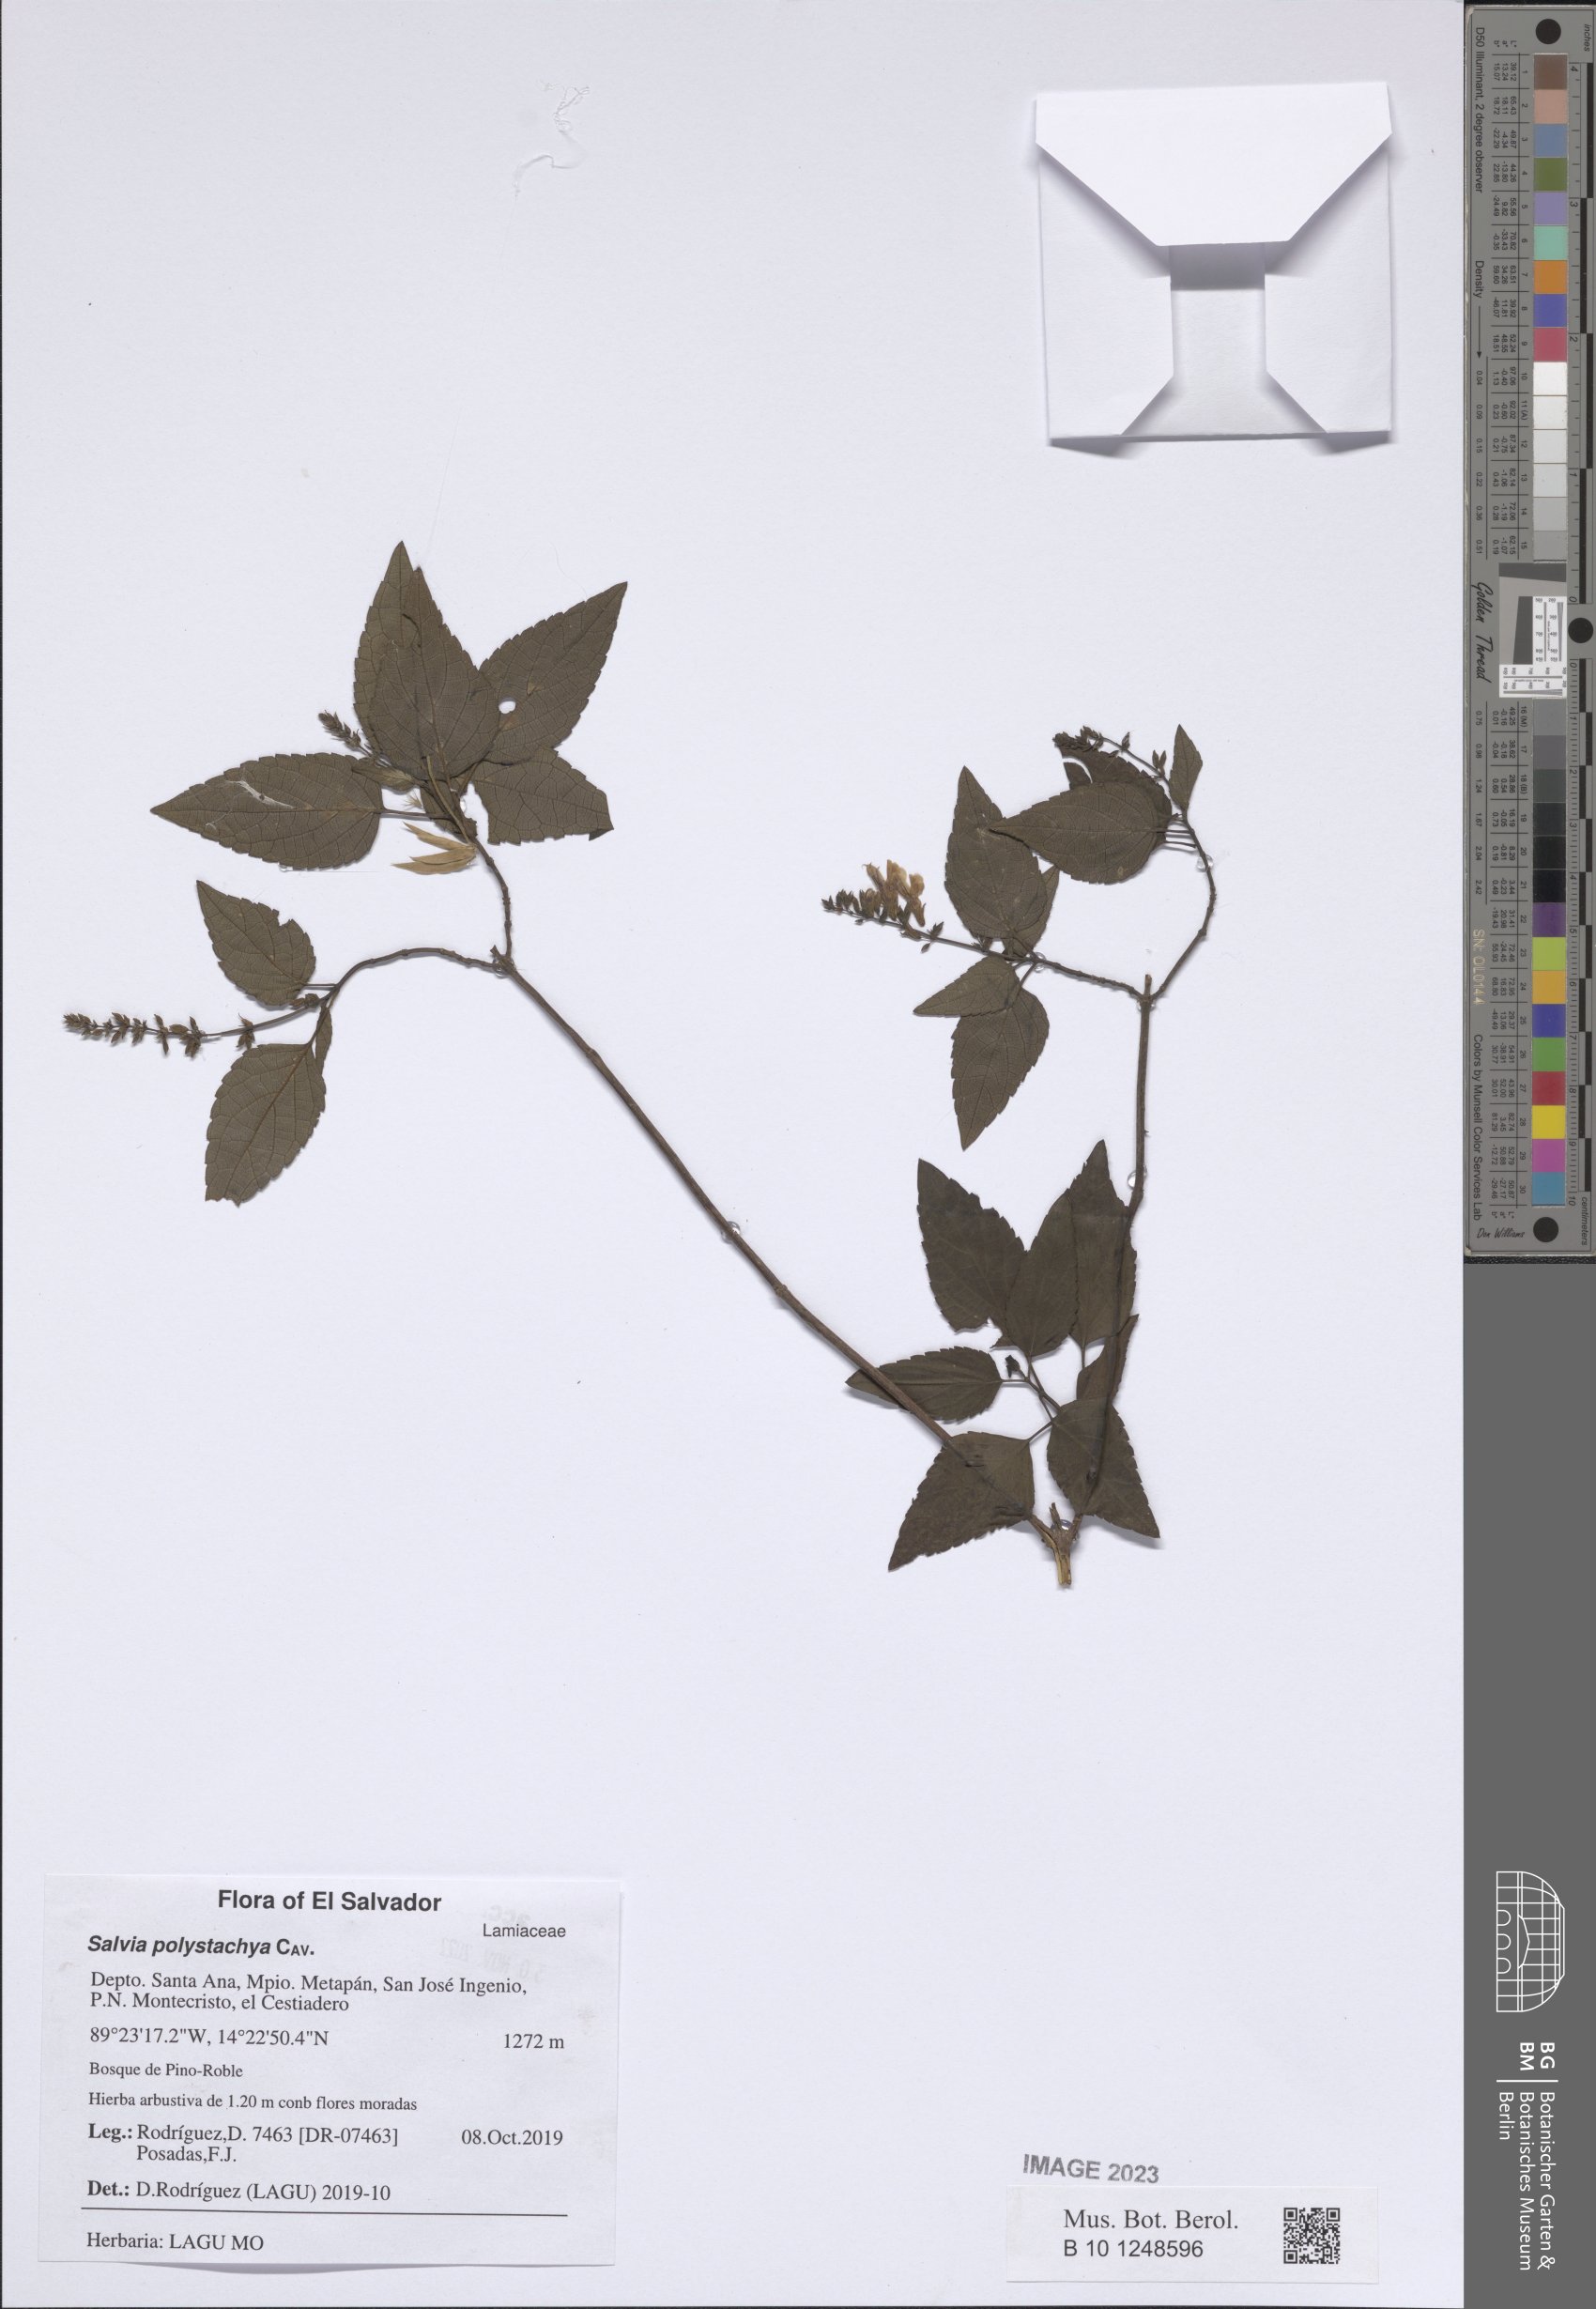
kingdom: Plantae
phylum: Tracheophyta
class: Magnoliopsida
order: Lamiales
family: Lamiaceae
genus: Salvia
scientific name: Salvia polystachia
